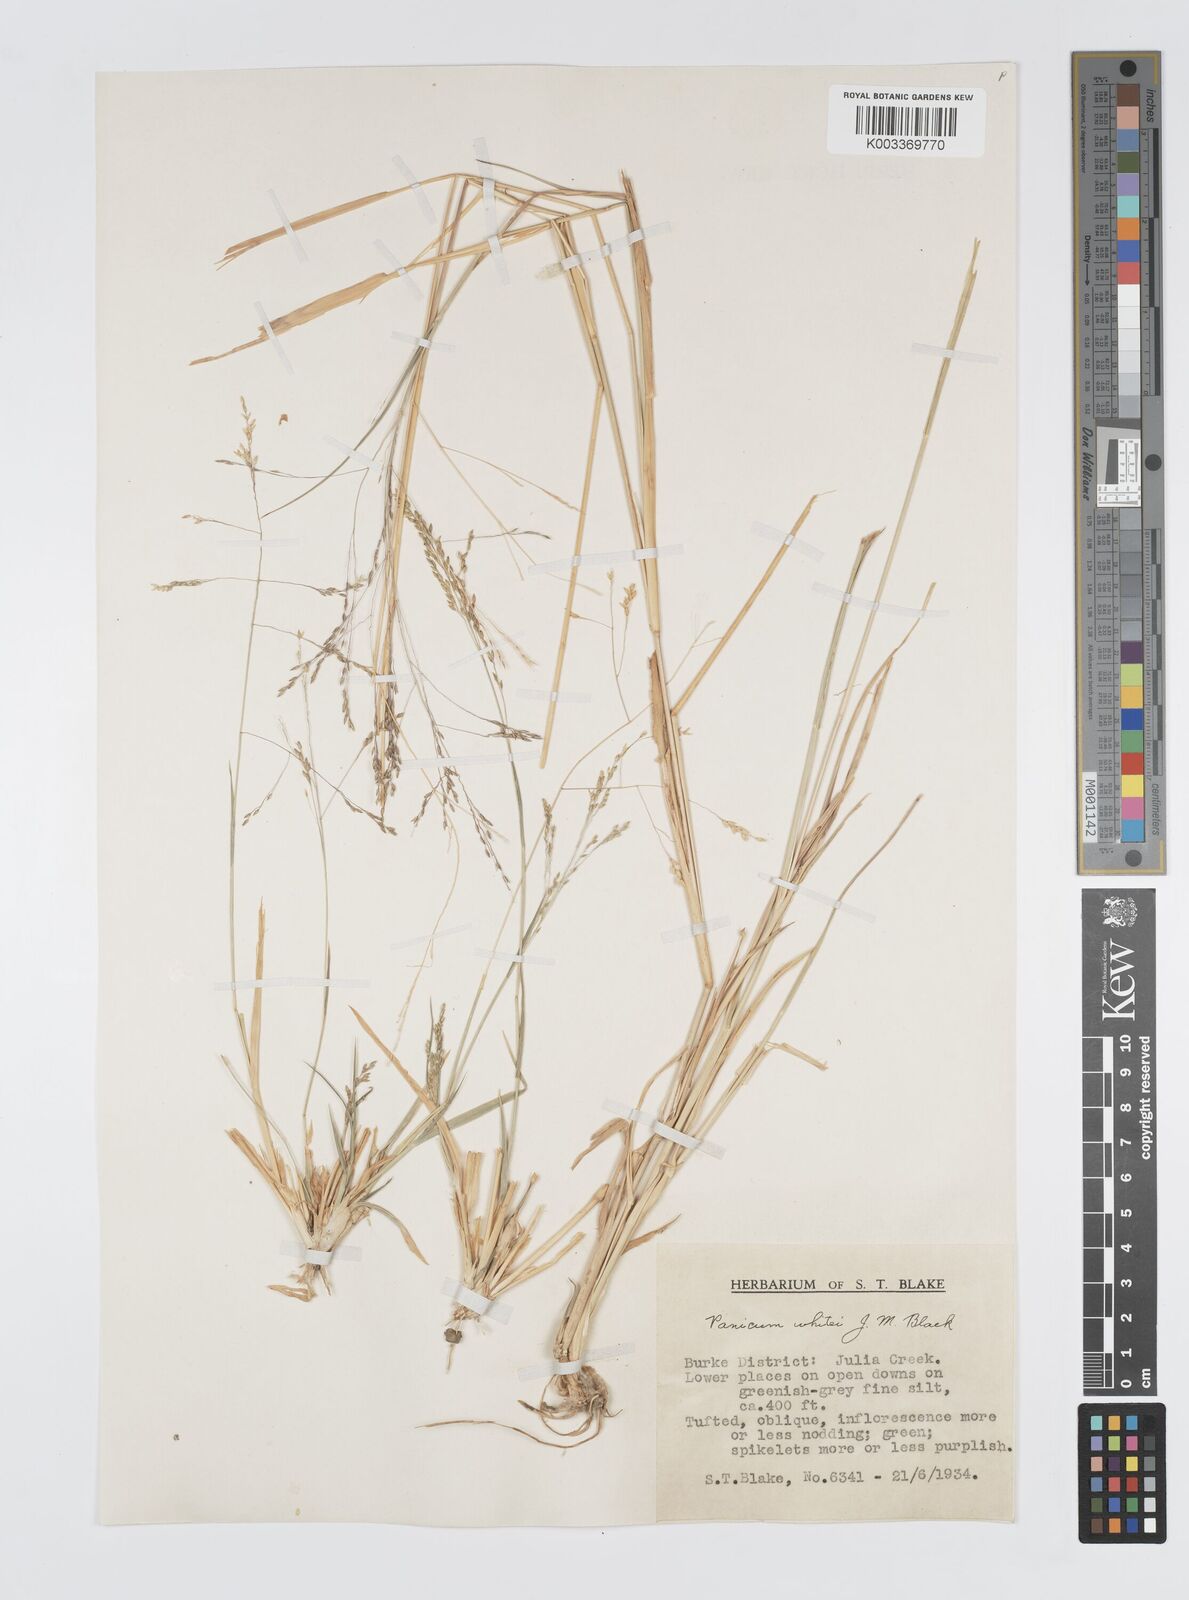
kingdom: Plantae
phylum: Tracheophyta
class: Liliopsida
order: Poales
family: Poaceae
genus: Panicum
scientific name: Panicum laevinode
